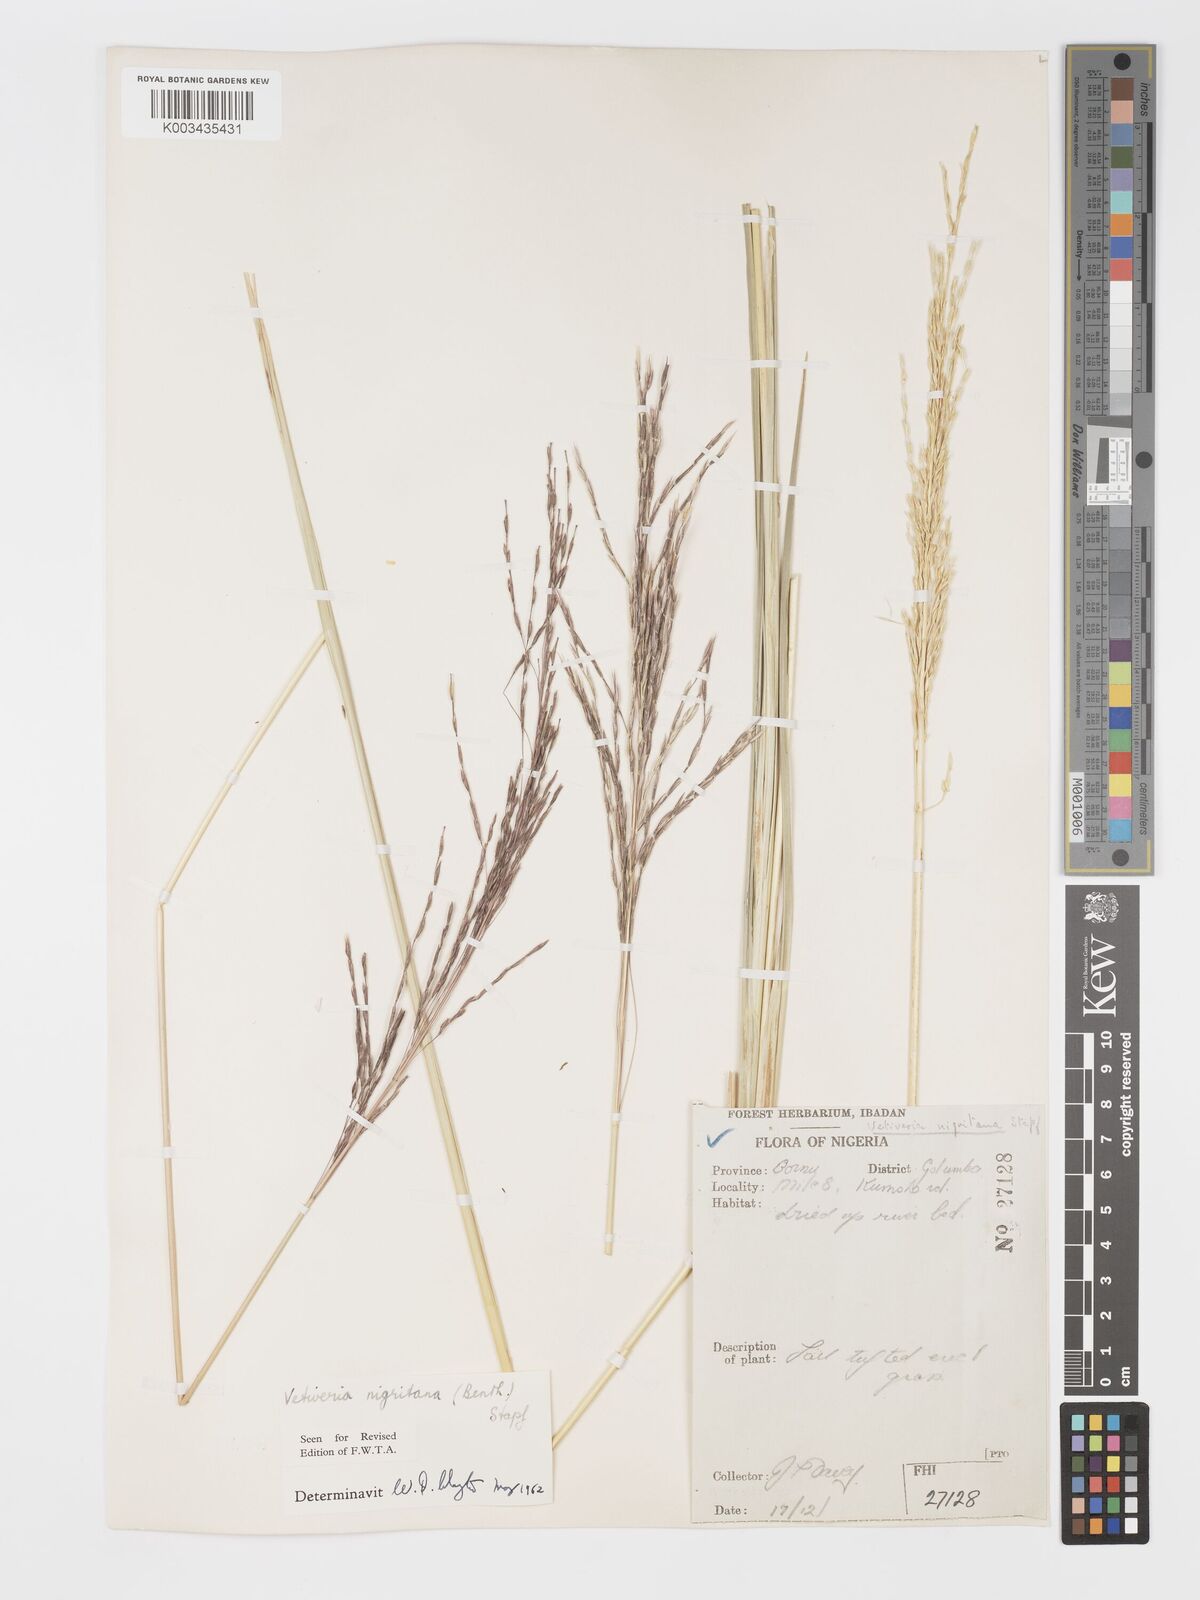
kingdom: Plantae
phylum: Tracheophyta
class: Liliopsida
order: Poales
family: Poaceae
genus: Chrysopogon
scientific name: Chrysopogon nigritanus
